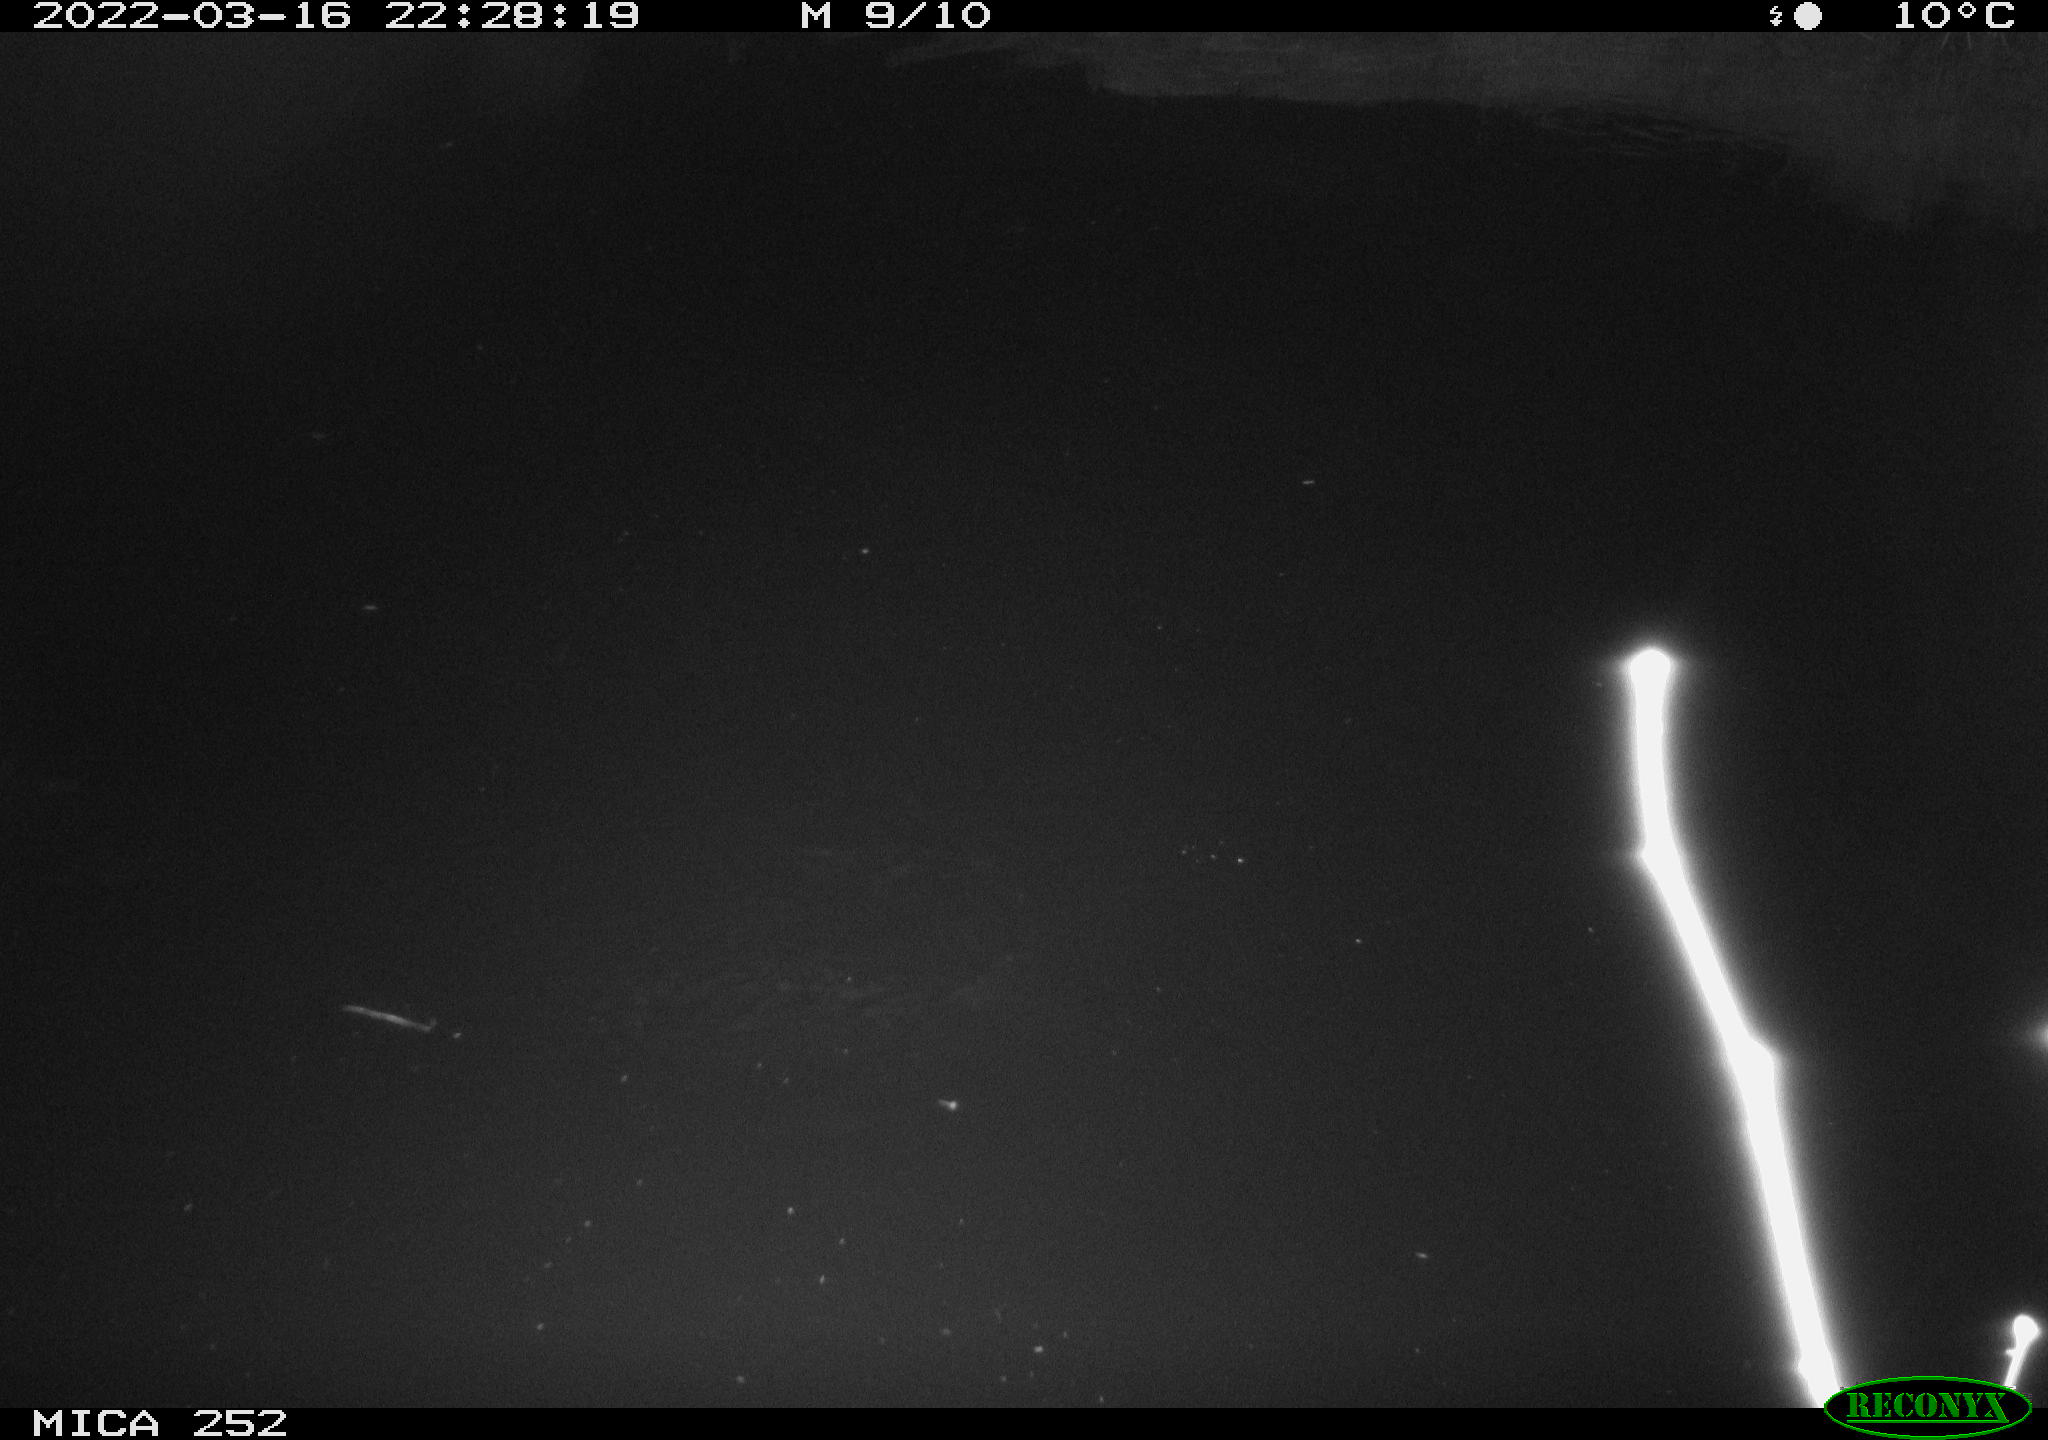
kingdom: Animalia
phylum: Chordata
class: Mammalia
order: Rodentia
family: Castoridae
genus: Castor
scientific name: Castor fiber
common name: Eurasian beaver
